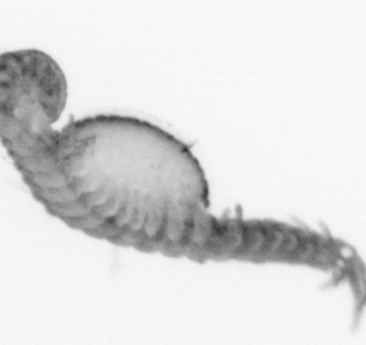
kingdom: Animalia
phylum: Annelida
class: Polychaeta
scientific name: Polychaeta
